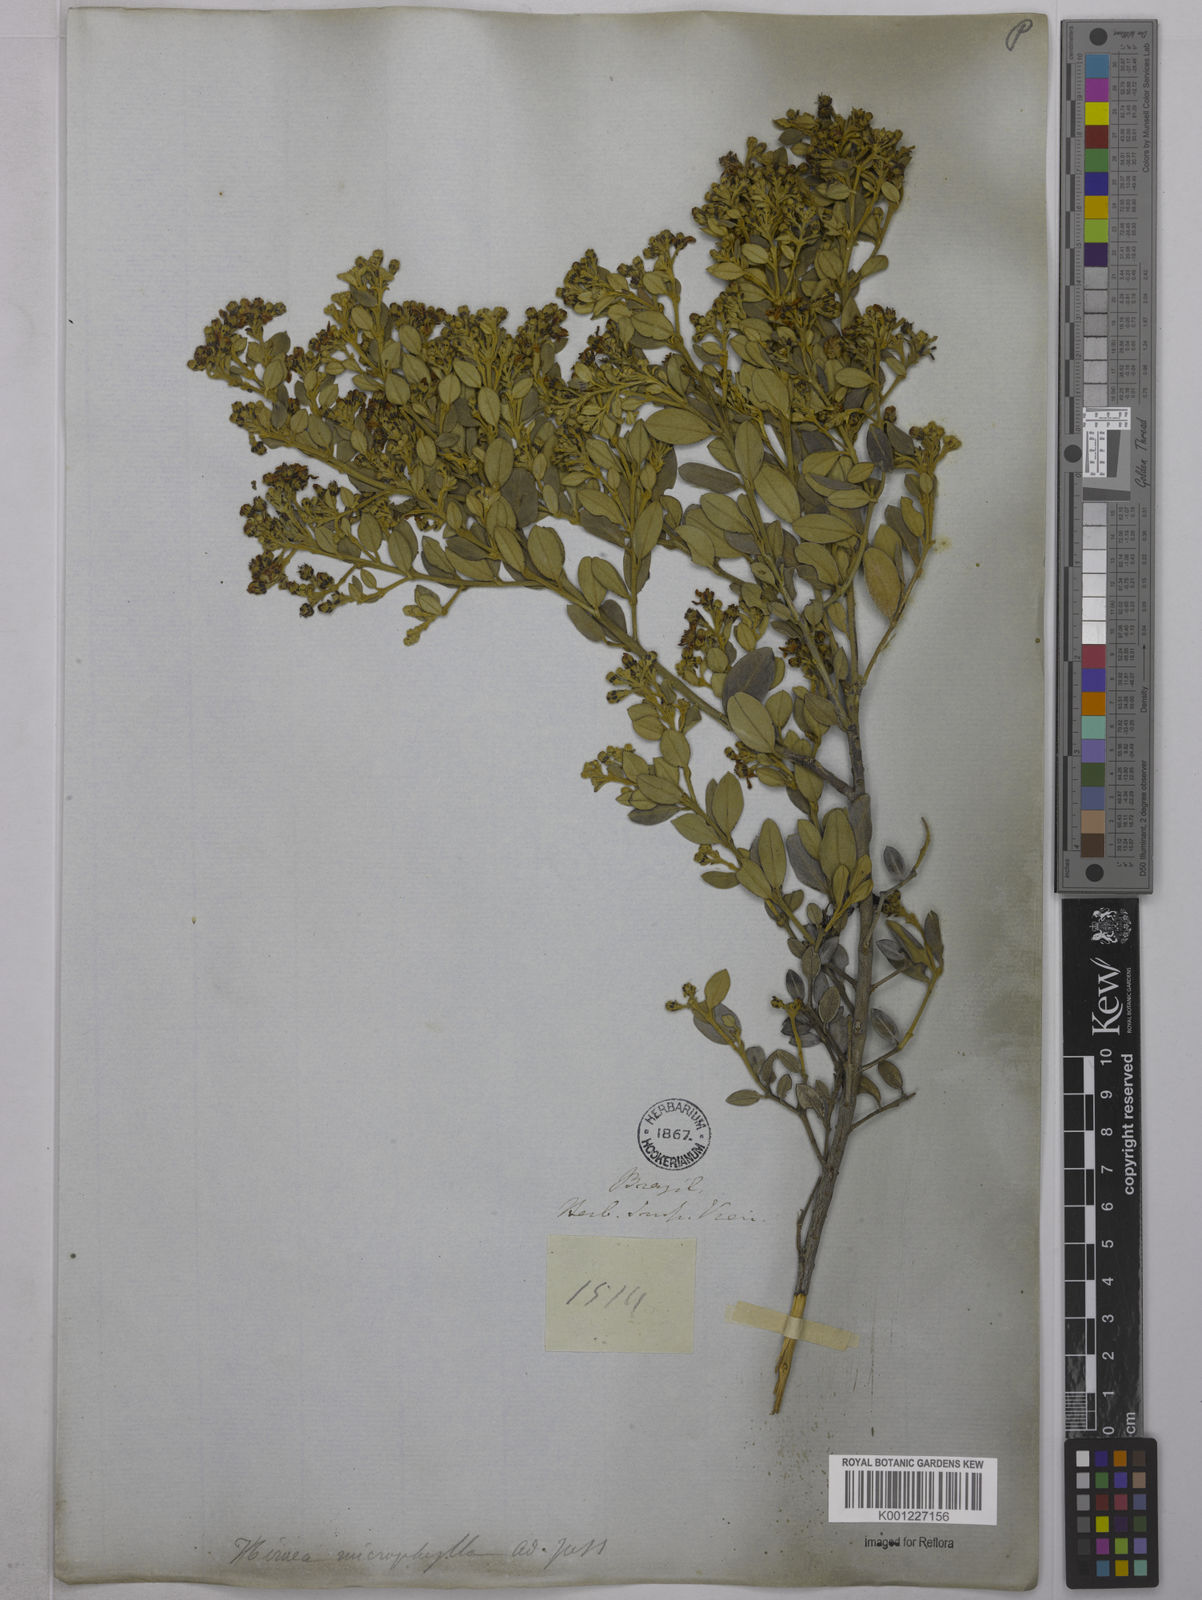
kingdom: Plantae
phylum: Tracheophyta
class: Magnoliopsida
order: Malpighiales
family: Malpighiaceae
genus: Glicophyllum
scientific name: Glicophyllum microphyllum
